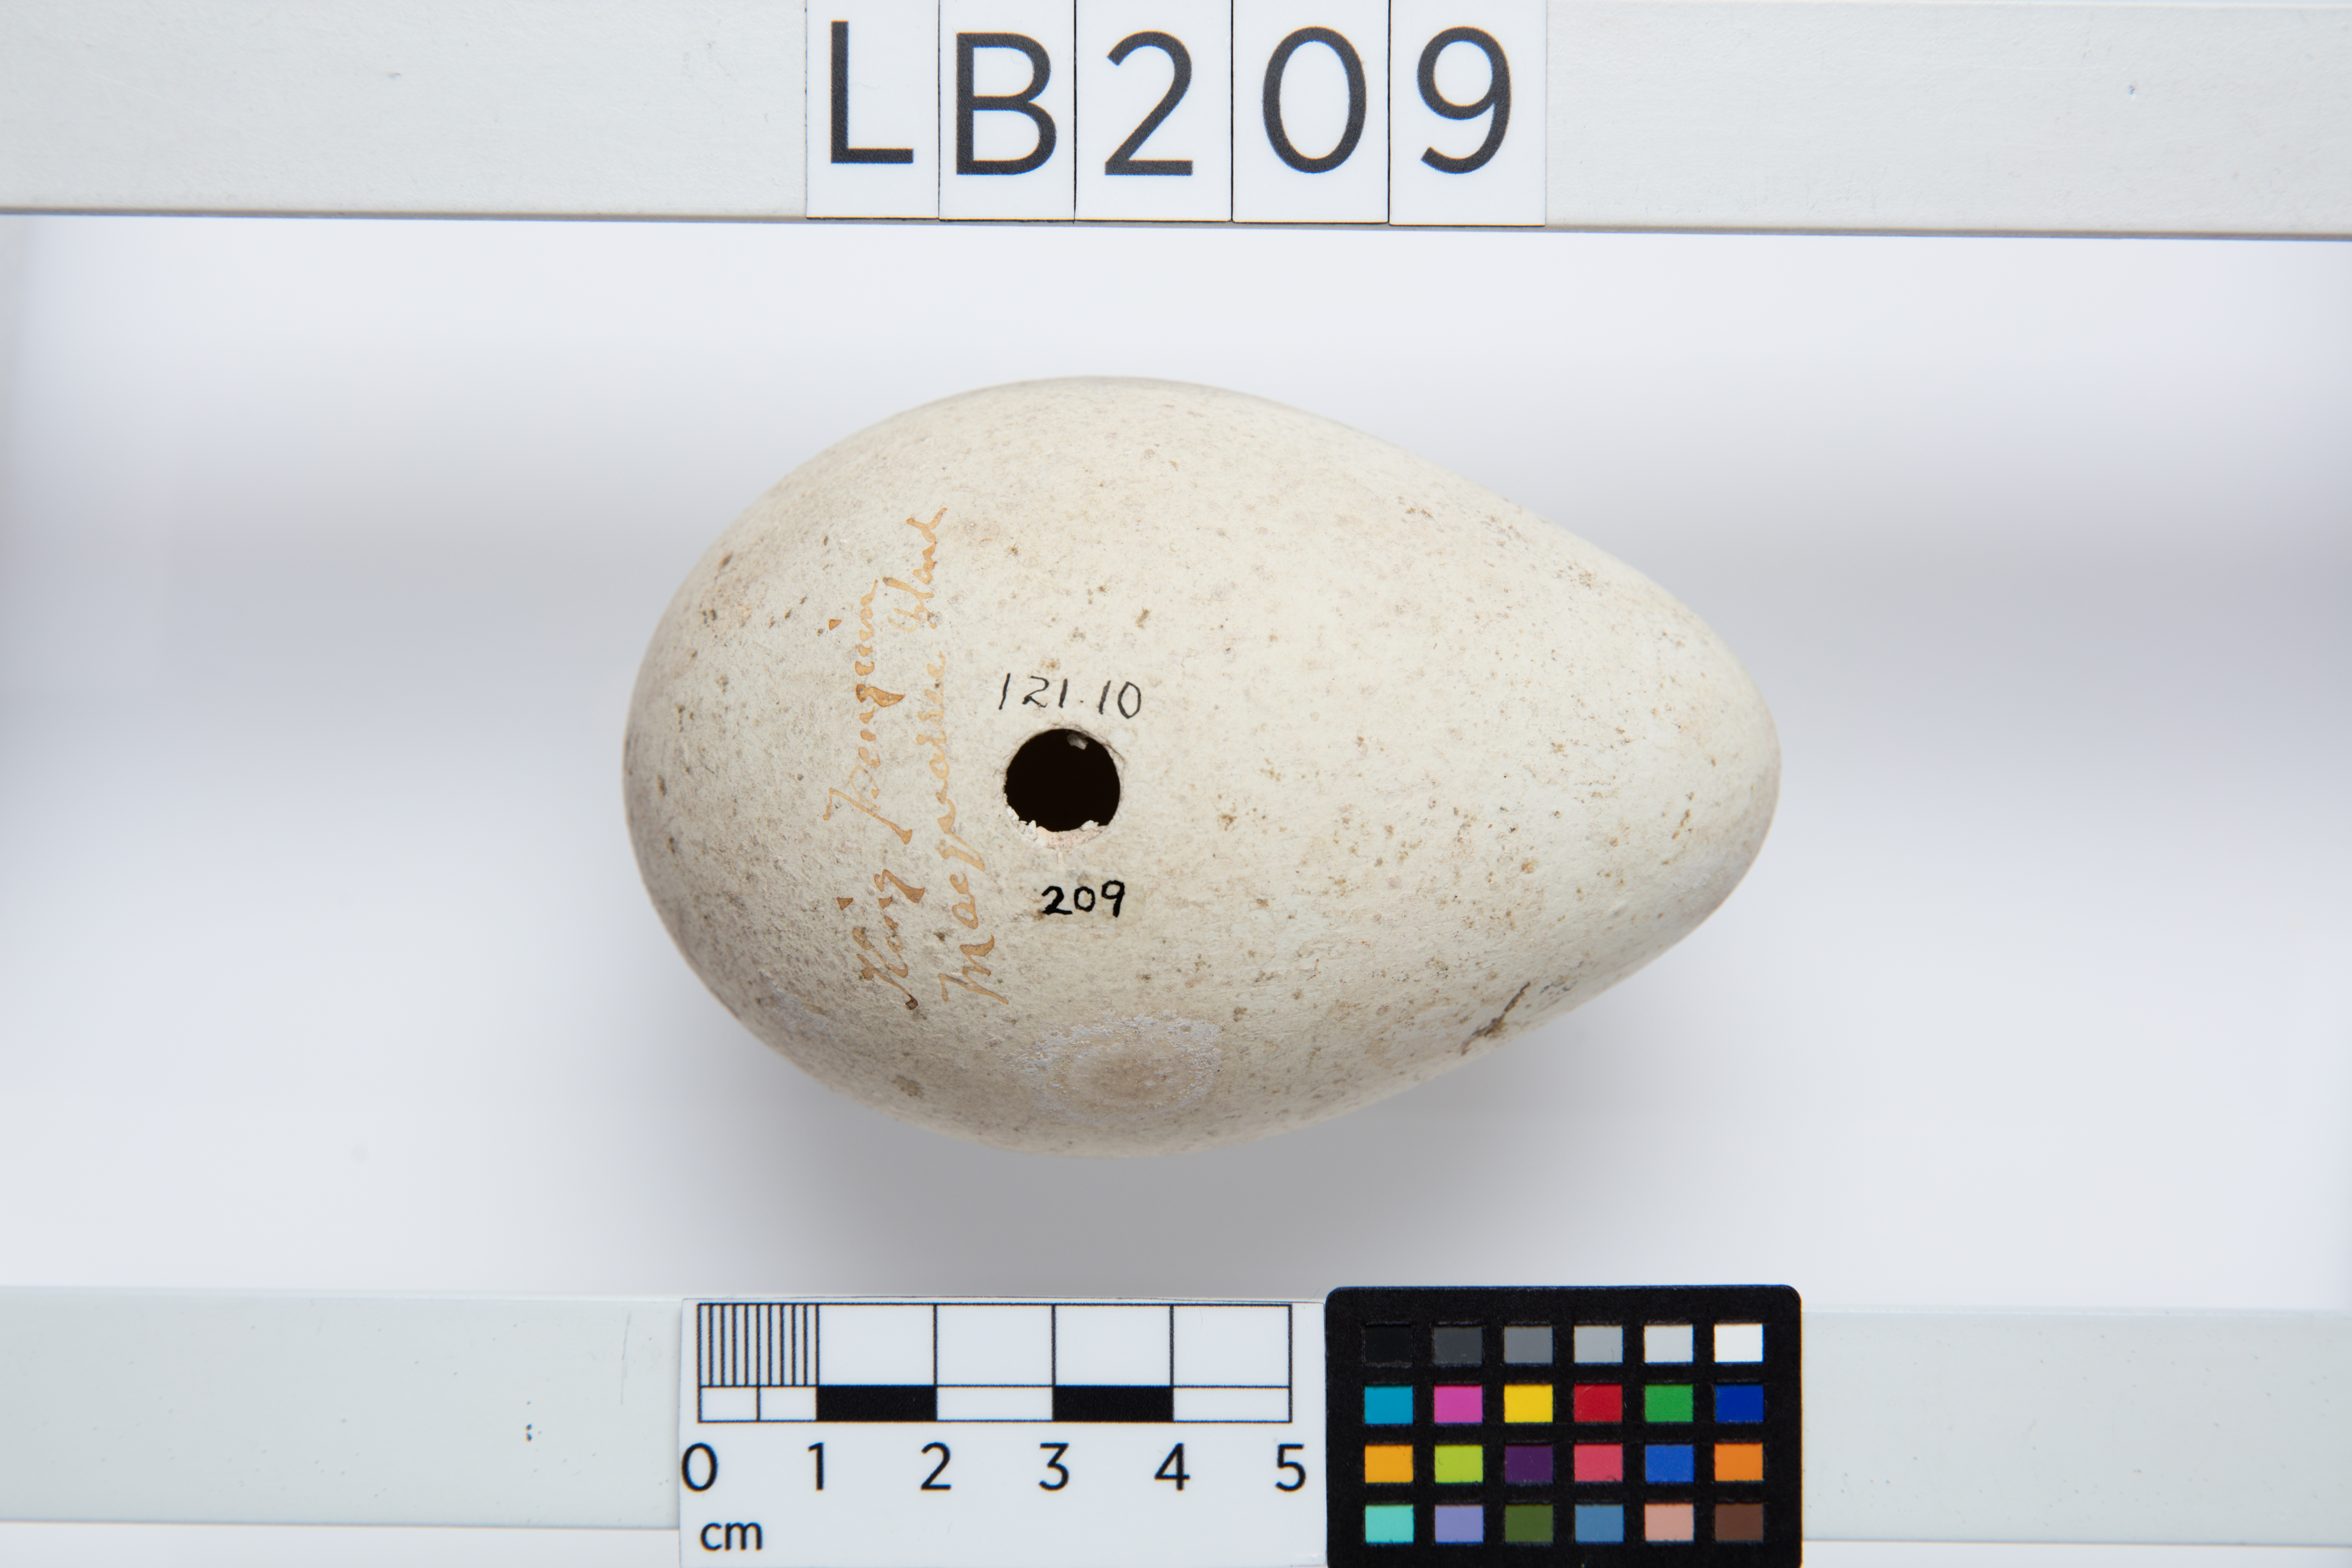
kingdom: Animalia
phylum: Chordata
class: Aves
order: Sphenisciformes
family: Spheniscidae
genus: Aptenodytes
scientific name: Aptenodytes patagonicus
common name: King penguin
